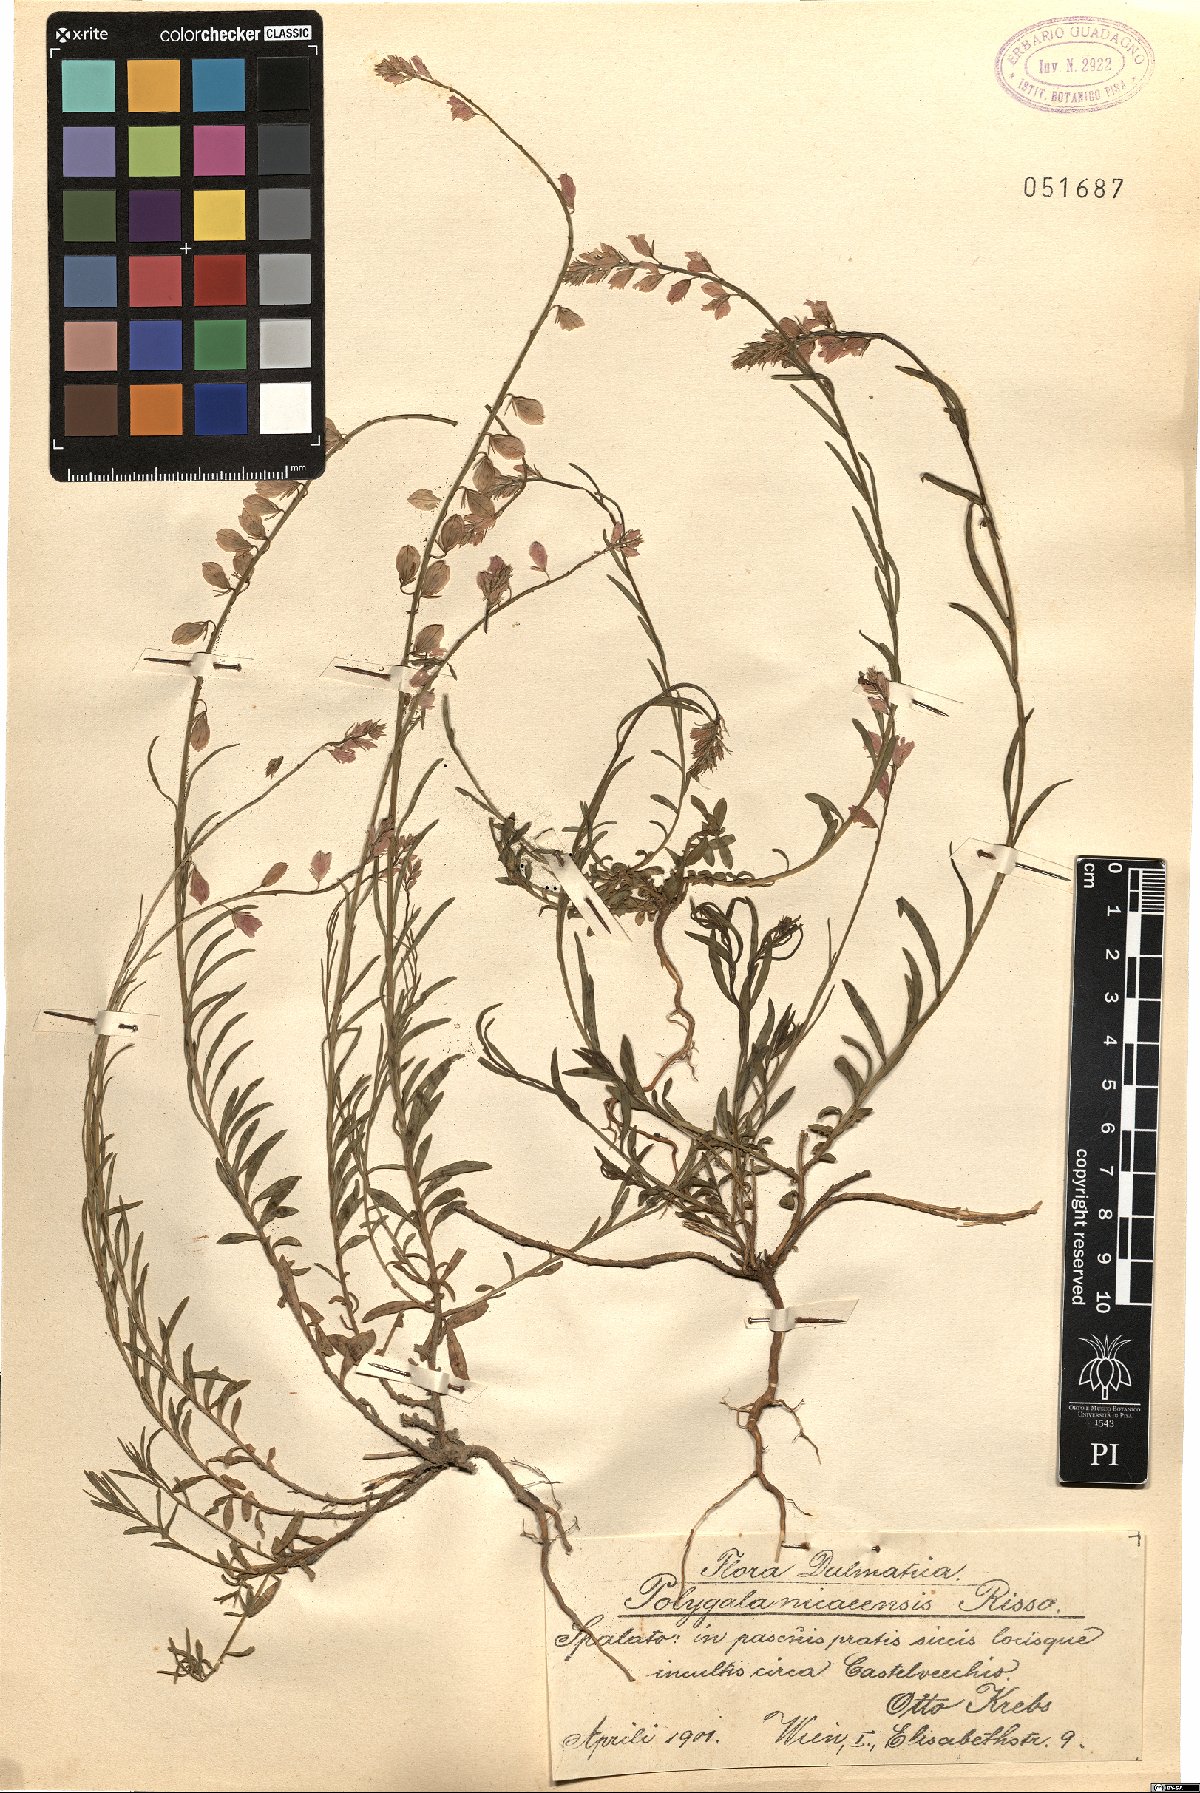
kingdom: Plantae
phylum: Tracheophyta
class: Magnoliopsida
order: Fabales
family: Polygalaceae
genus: Polygala
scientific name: Polygala nicaeensis
